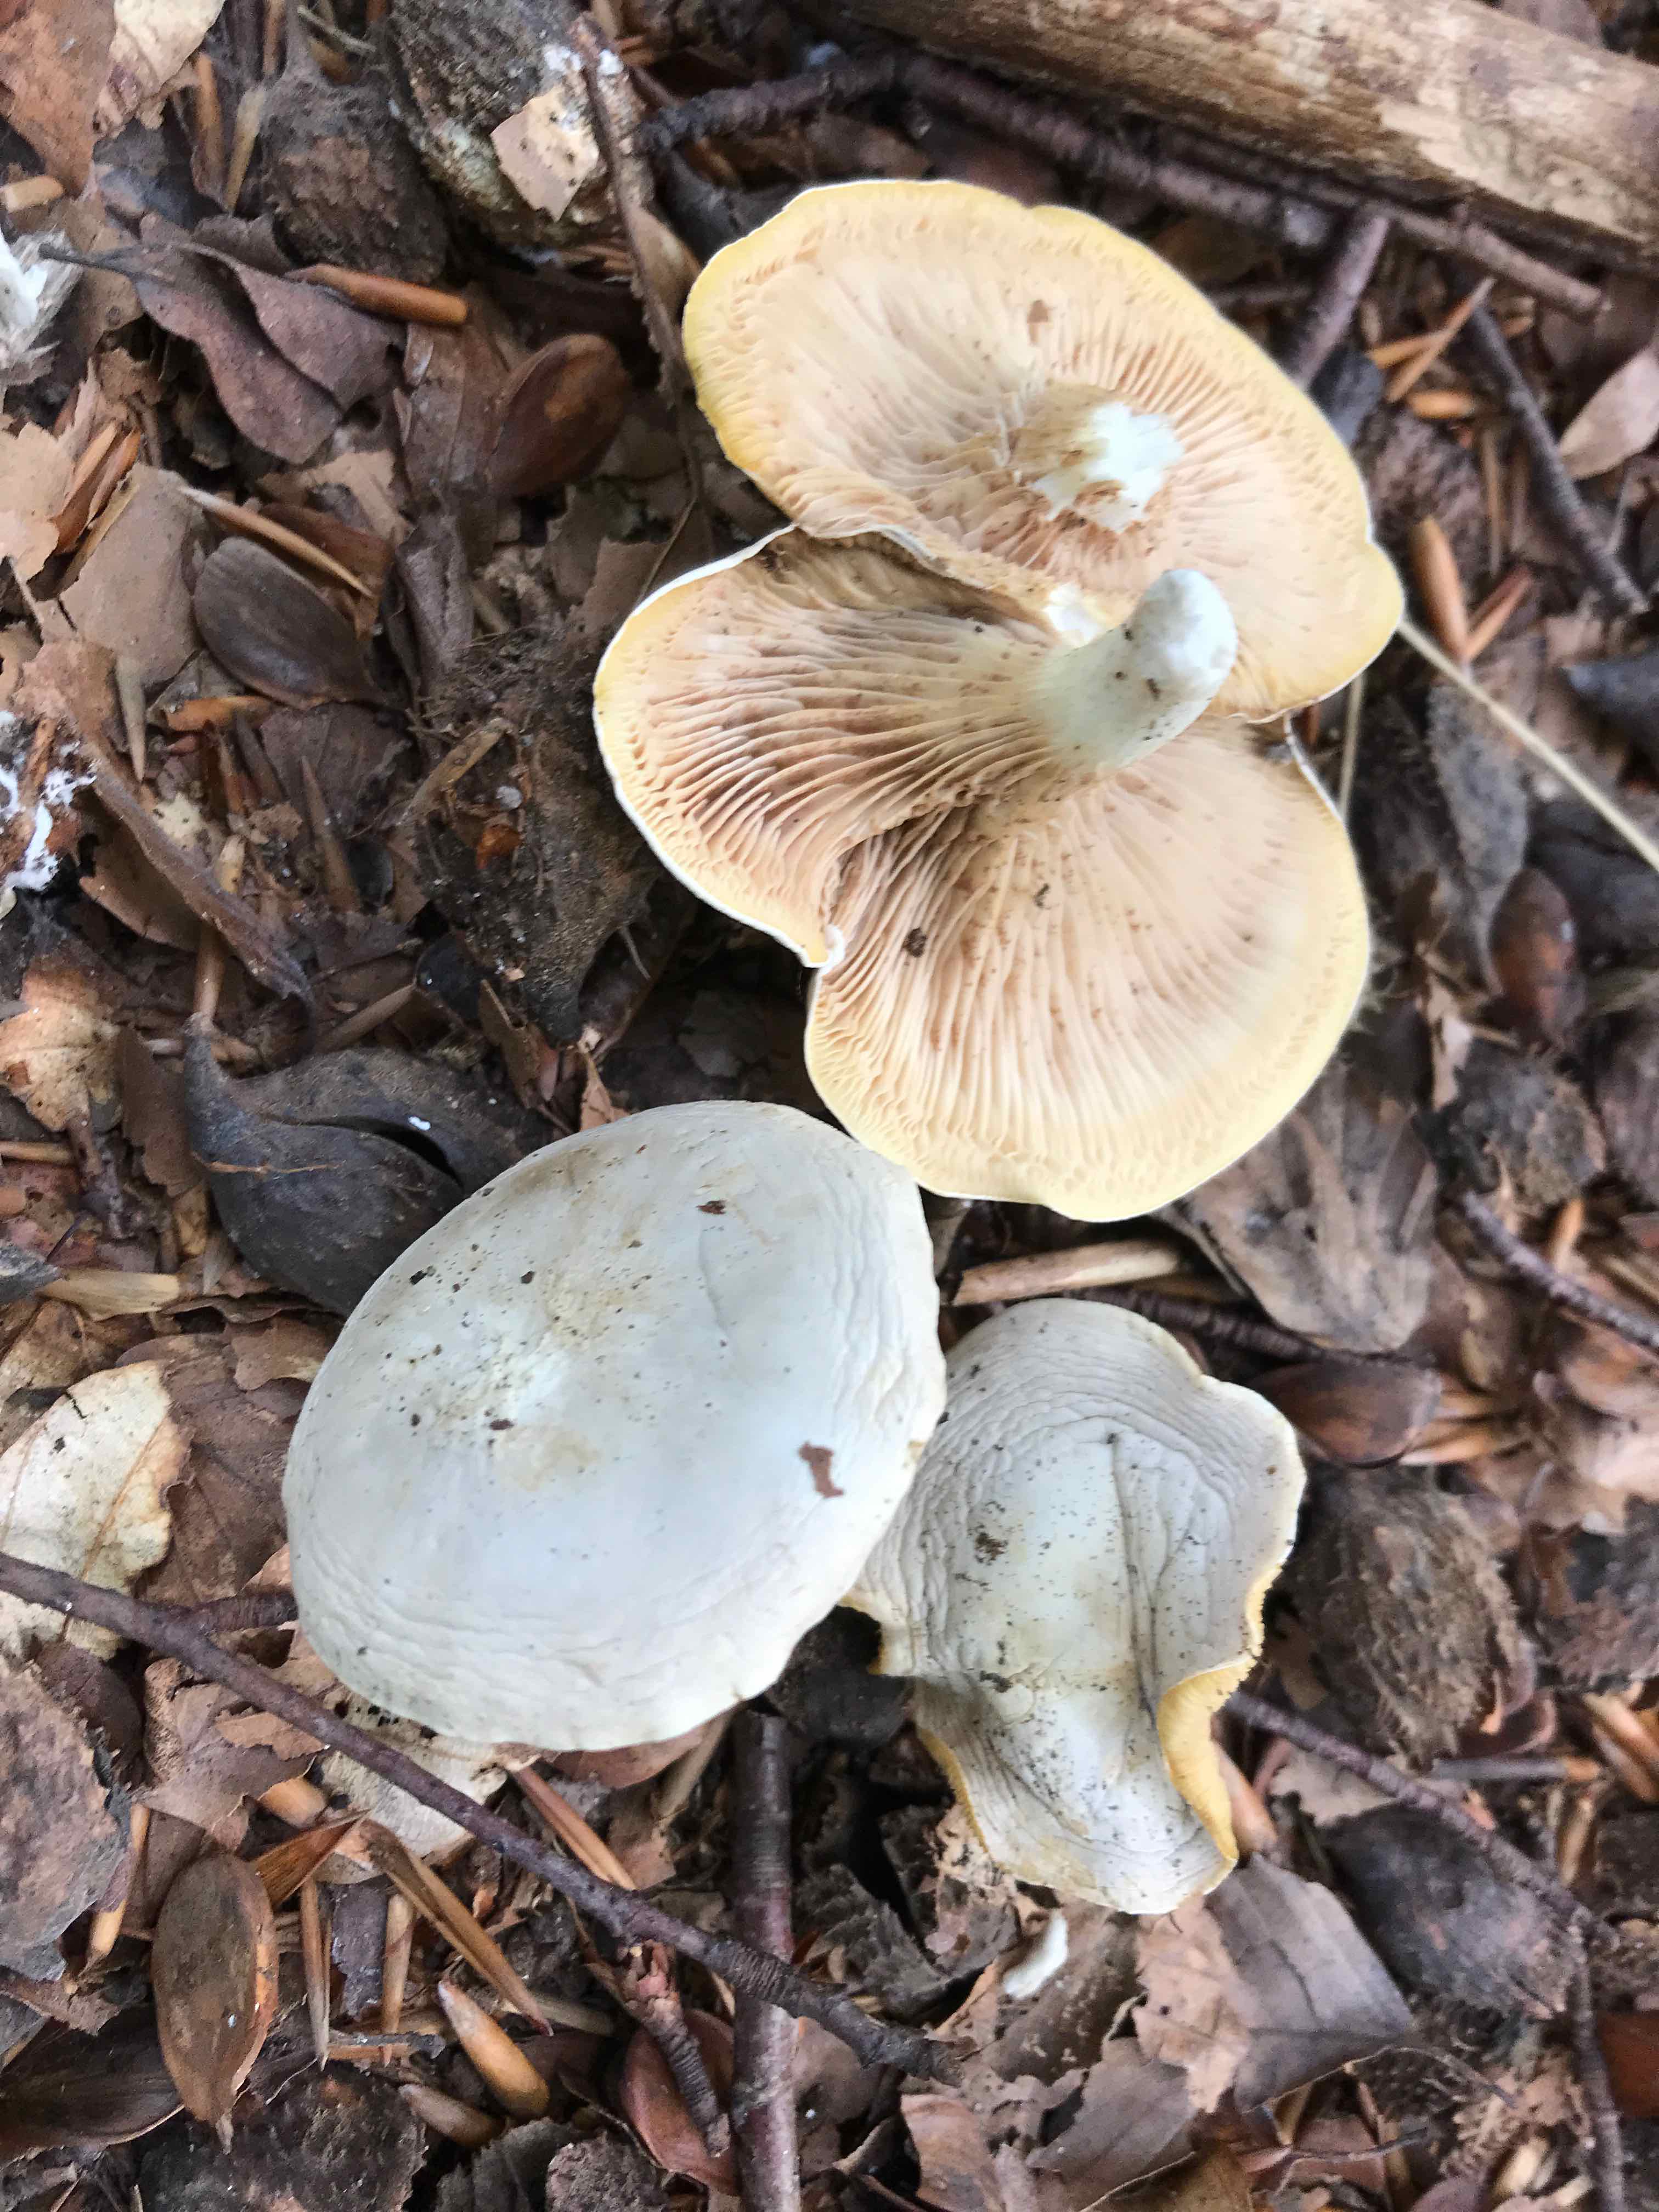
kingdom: Fungi
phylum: Basidiomycota
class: Agaricomycetes
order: Agaricales
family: Entolomataceae
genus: Clitopilus
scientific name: Clitopilus prunulus
